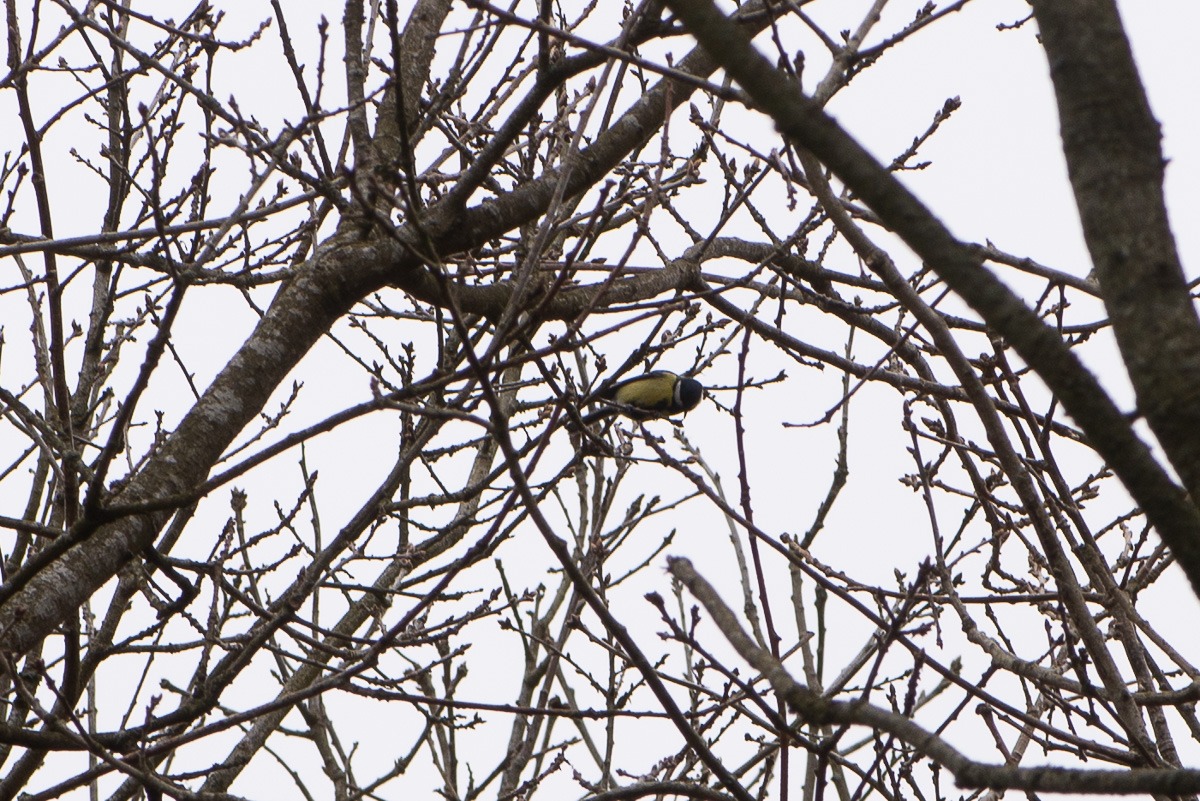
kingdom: Animalia
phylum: Chordata
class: Aves
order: Passeriformes
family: Paridae
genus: Parus
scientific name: Parus major
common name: Musvit
